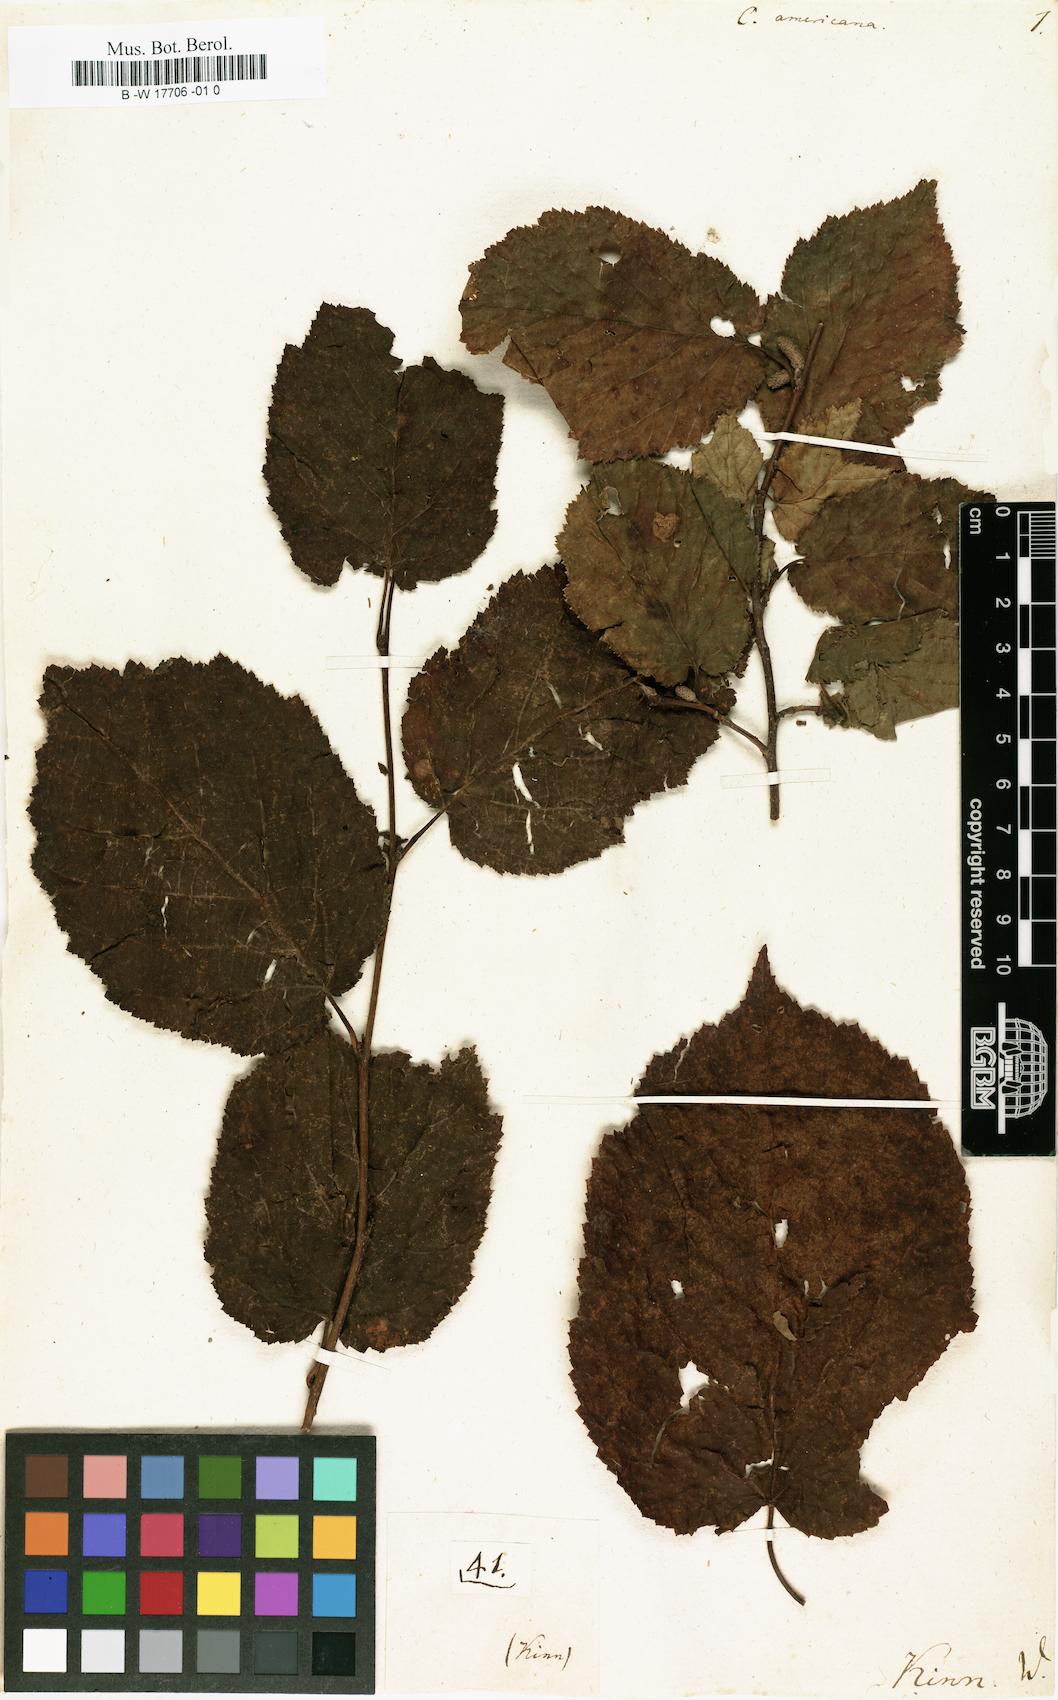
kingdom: Plantae
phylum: Tracheophyta
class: Magnoliopsida
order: Fagales
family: Betulaceae
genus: Corylus
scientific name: Corylus americana
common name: American hazel
